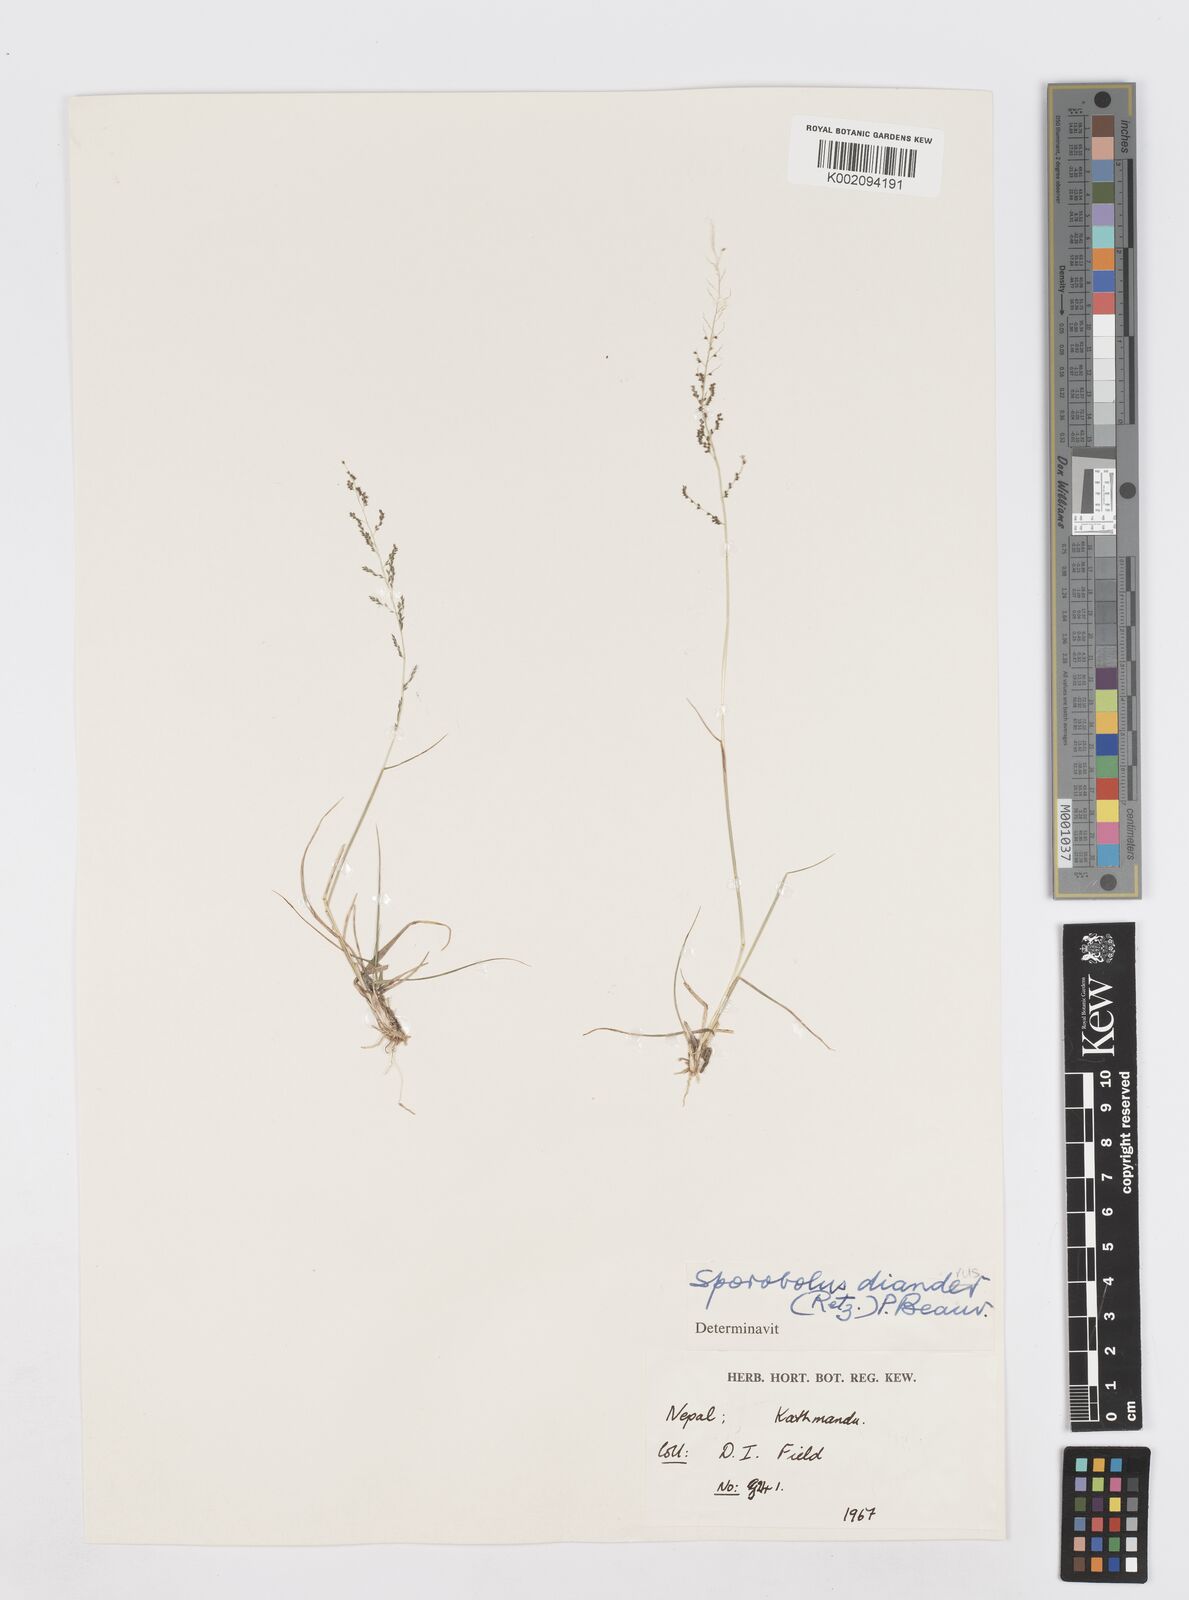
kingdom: Plantae
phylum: Tracheophyta
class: Liliopsida
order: Poales
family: Poaceae
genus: Sporobolus
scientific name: Sporobolus diandrus
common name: Tussock dropseed
